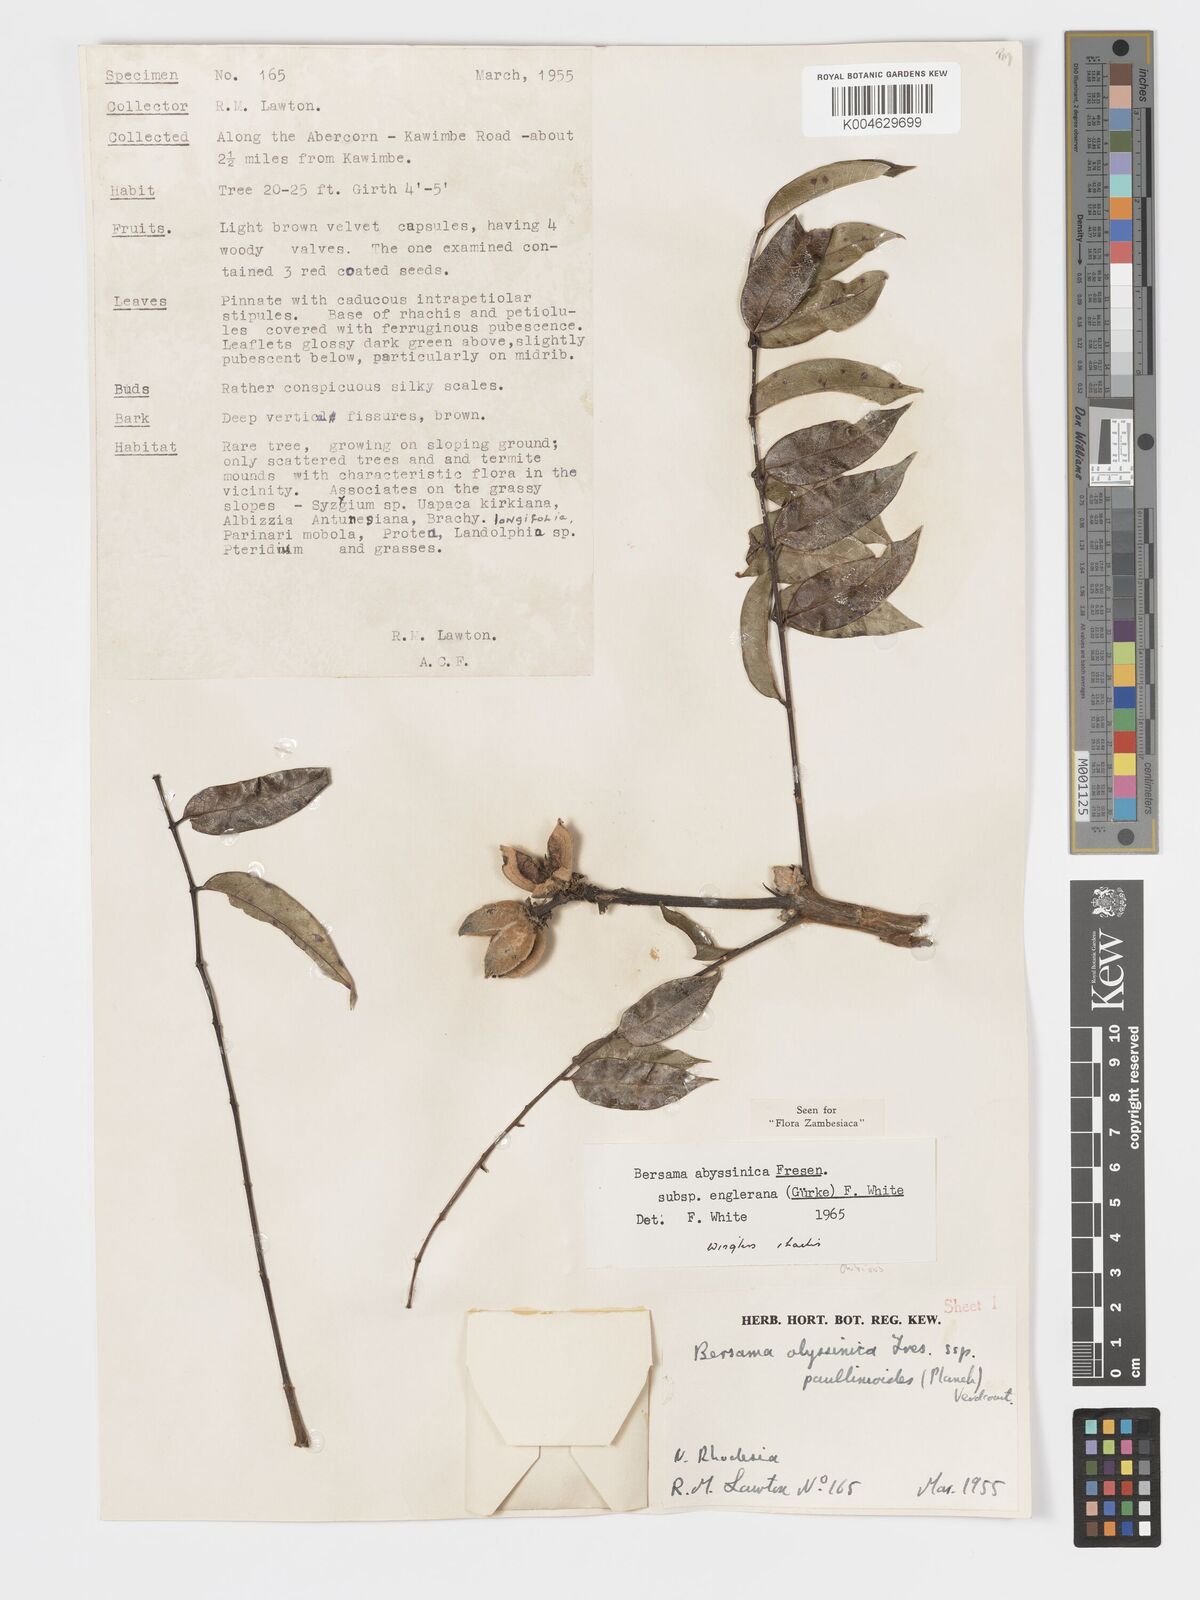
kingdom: Plantae
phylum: Tracheophyta
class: Magnoliopsida
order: Geraniales
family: Melianthaceae
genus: Bersama
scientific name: Bersama abyssinica
